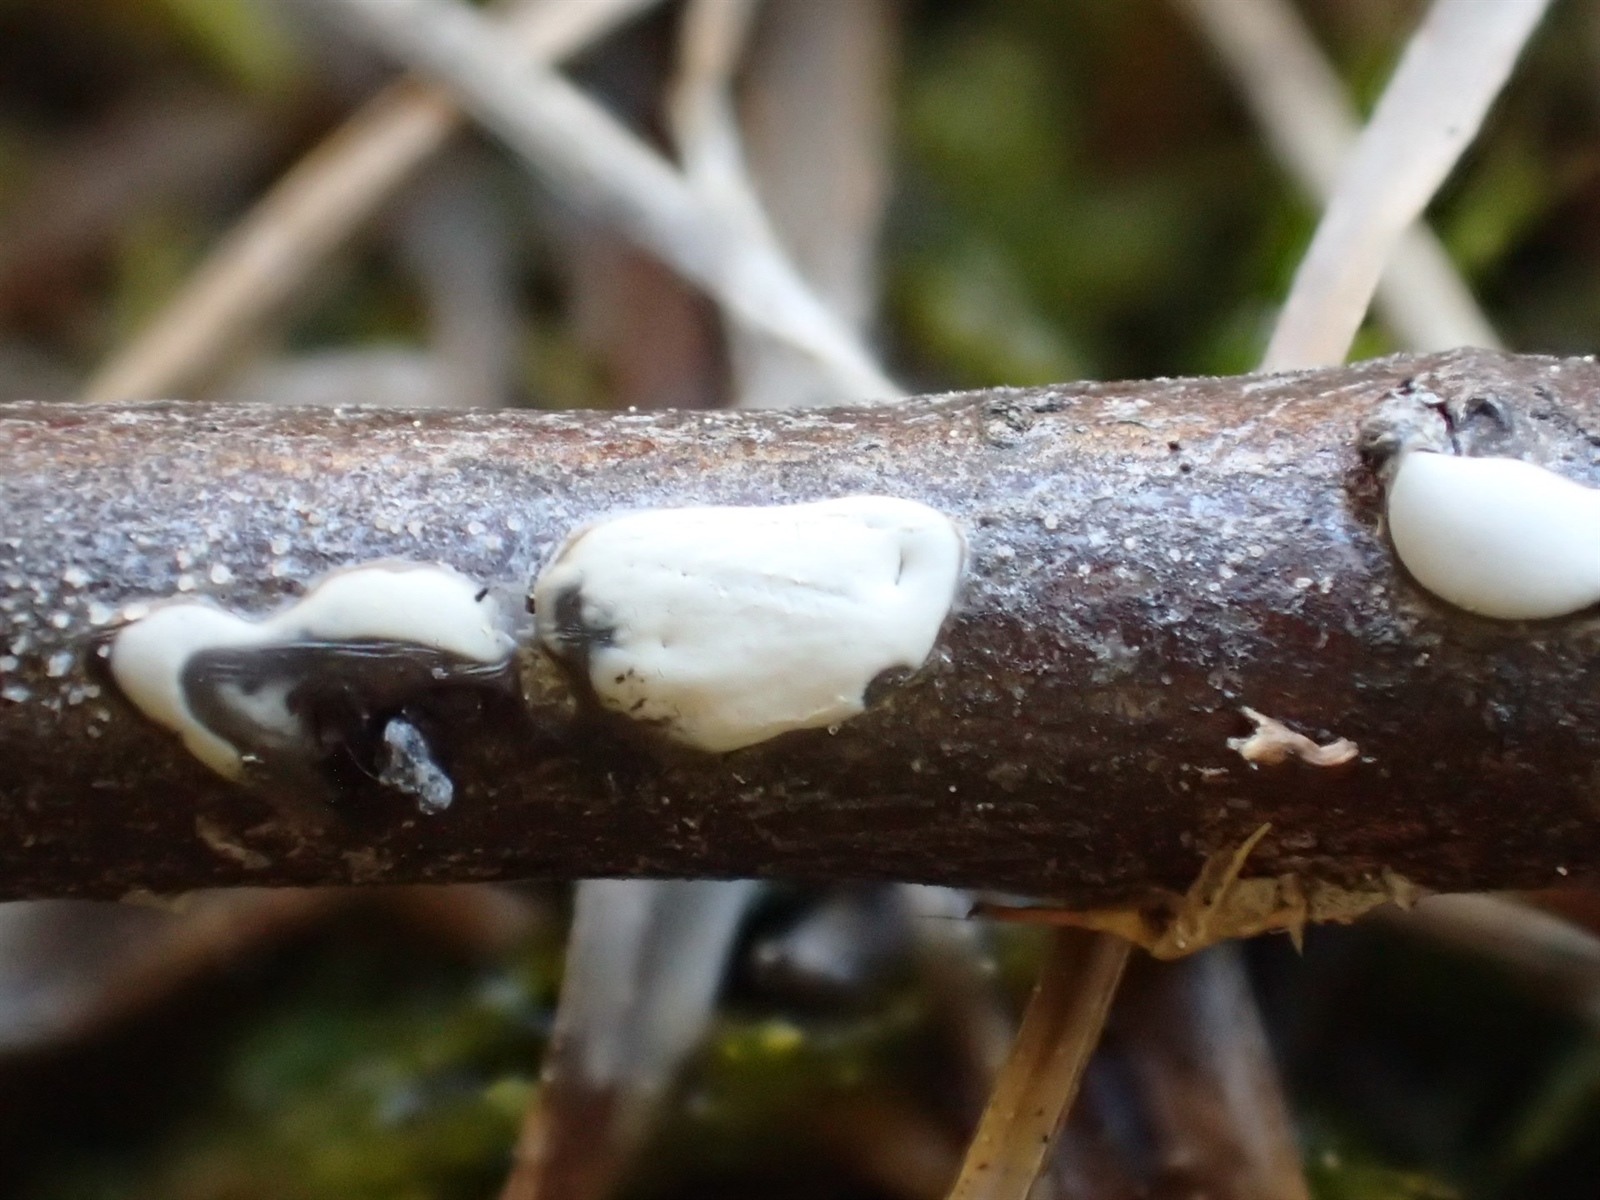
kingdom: Protozoa
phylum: Mycetozoa
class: Myxomycetes
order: Physarales
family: Didymiaceae
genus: Didymium
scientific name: Didymium dubium
